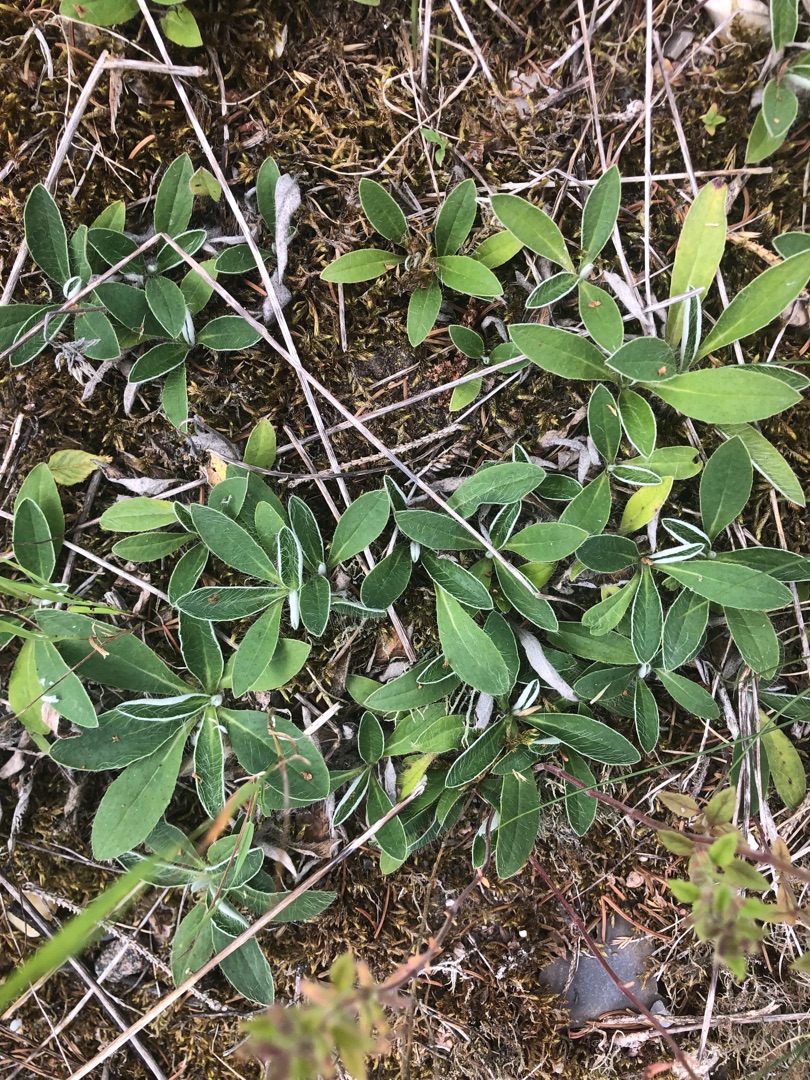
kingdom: Plantae
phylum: Tracheophyta
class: Magnoliopsida
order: Asterales
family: Asteraceae
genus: Pilosella
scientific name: Pilosella officinarum
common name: Håret høgeurt
